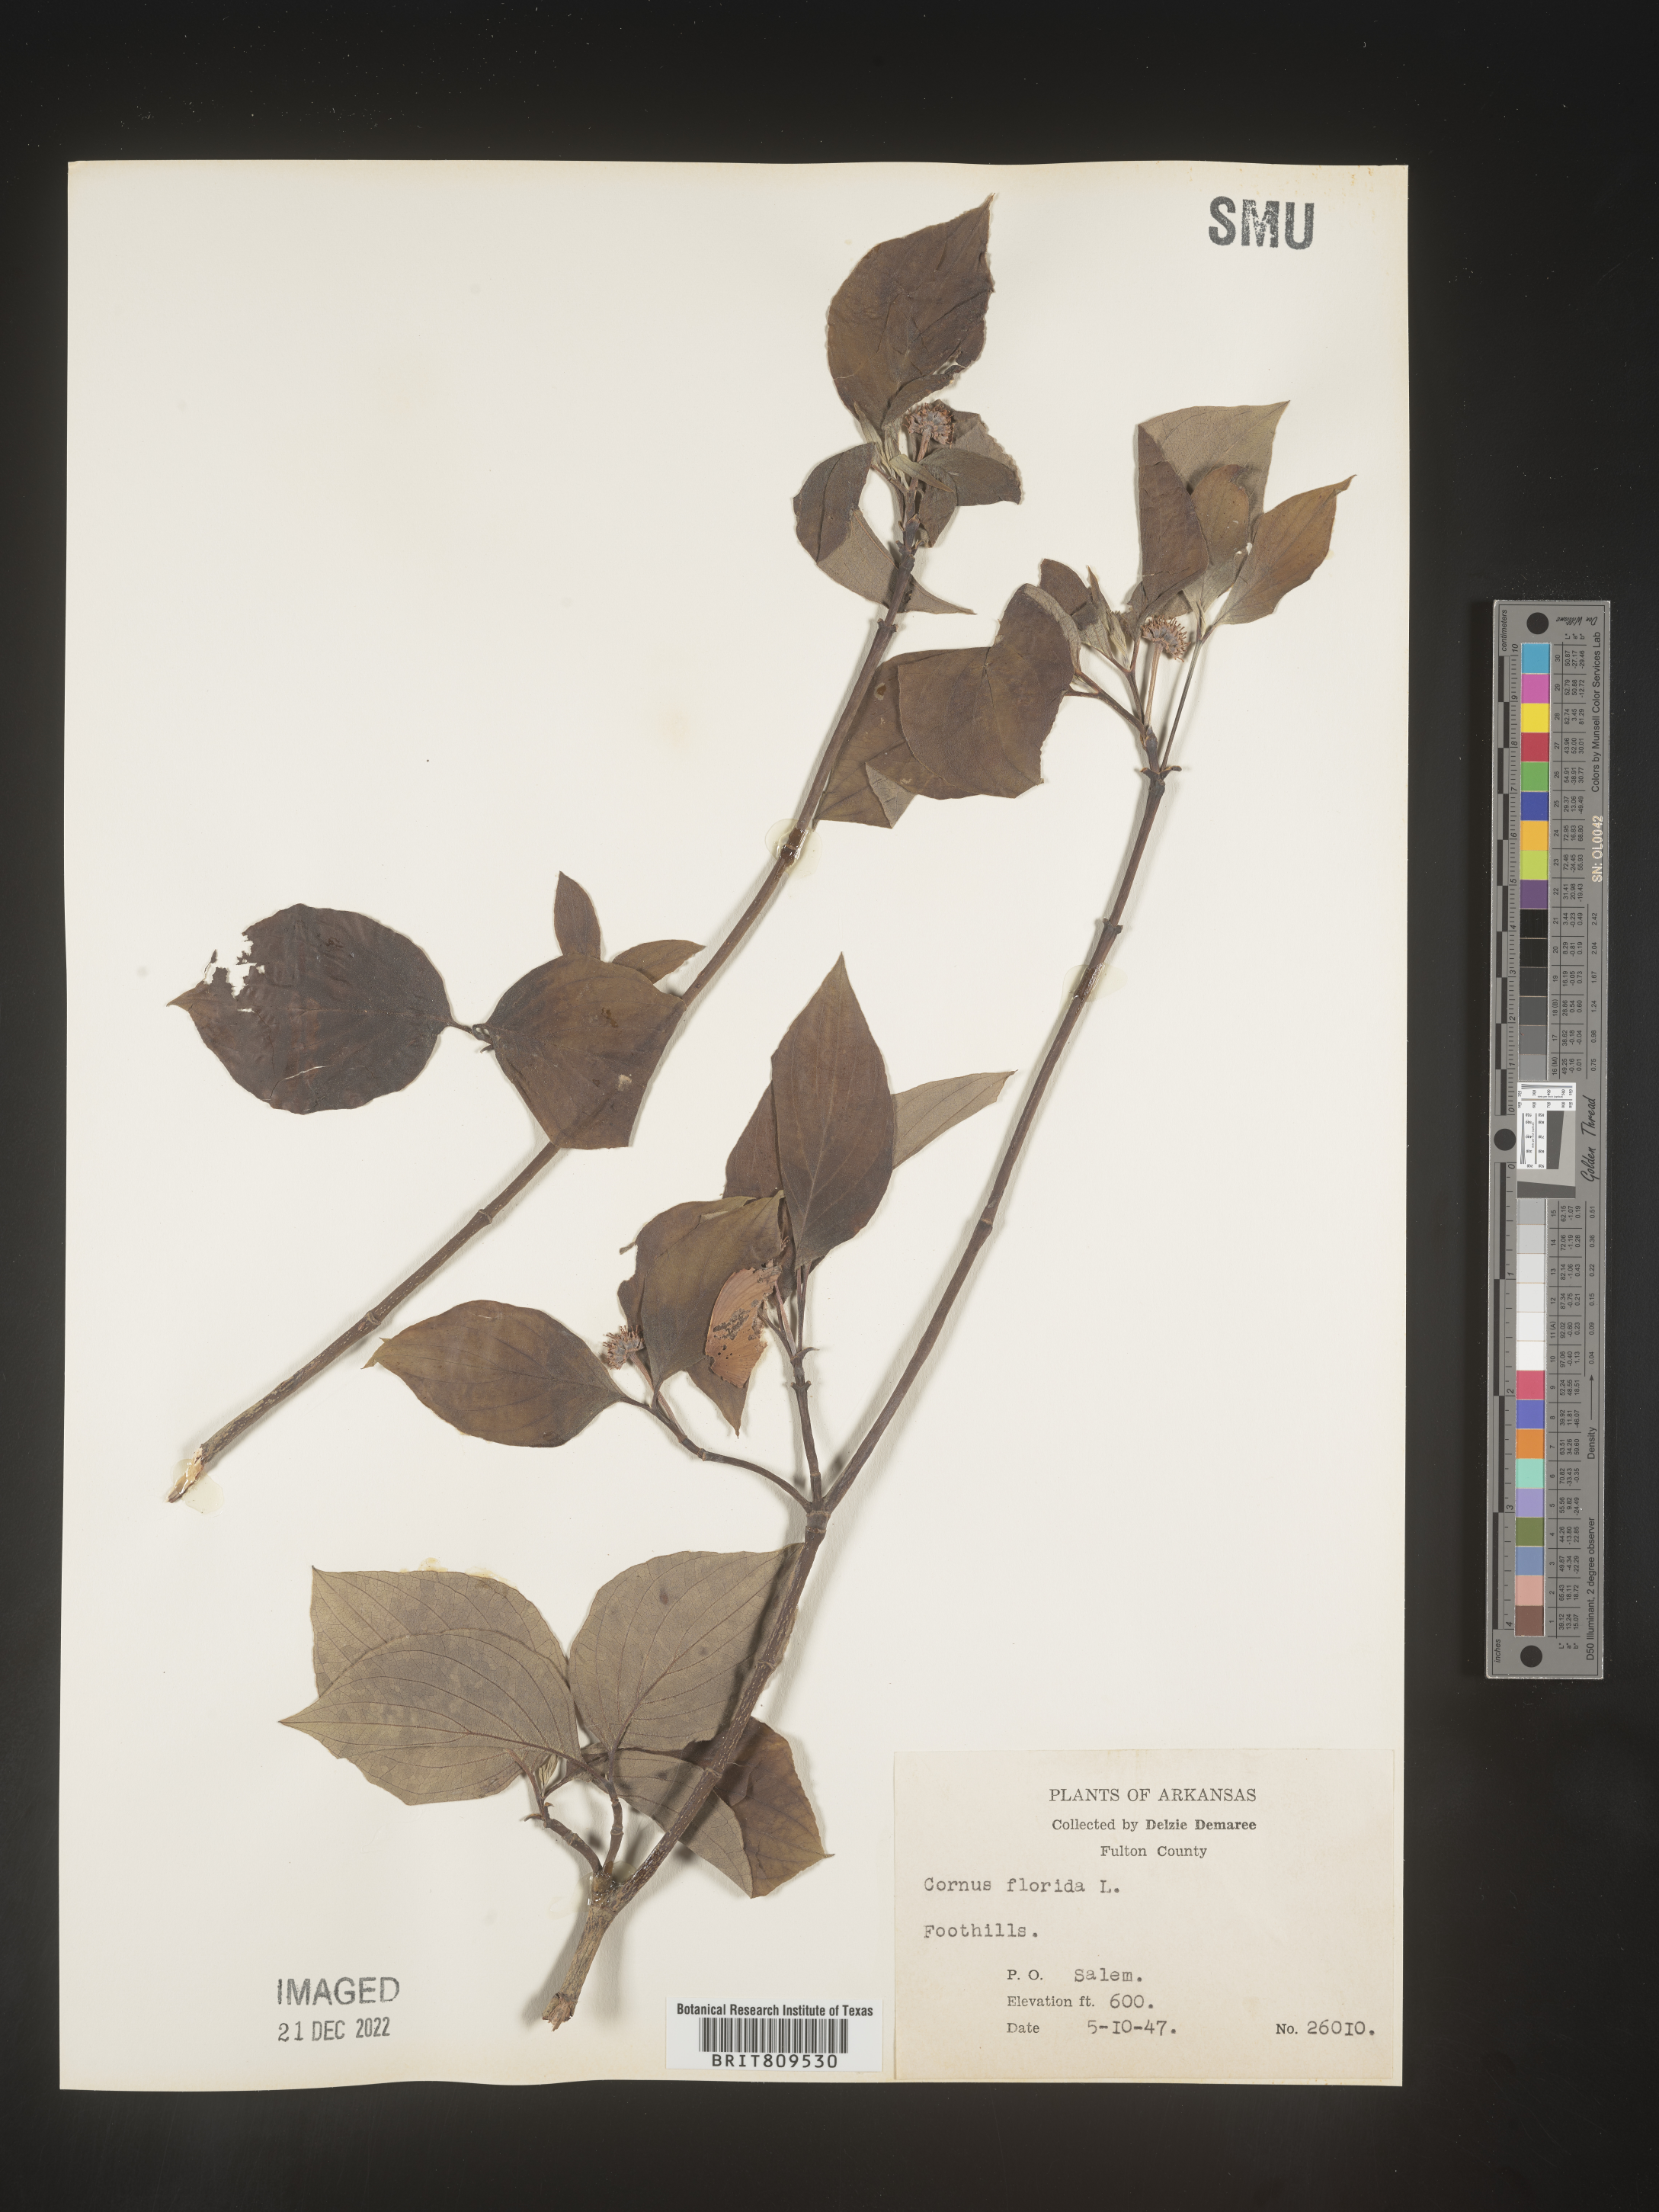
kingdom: Plantae
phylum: Tracheophyta
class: Magnoliopsida
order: Cornales
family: Cornaceae
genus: Cornus
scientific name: Cornus florida
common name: Flowering dogwood
